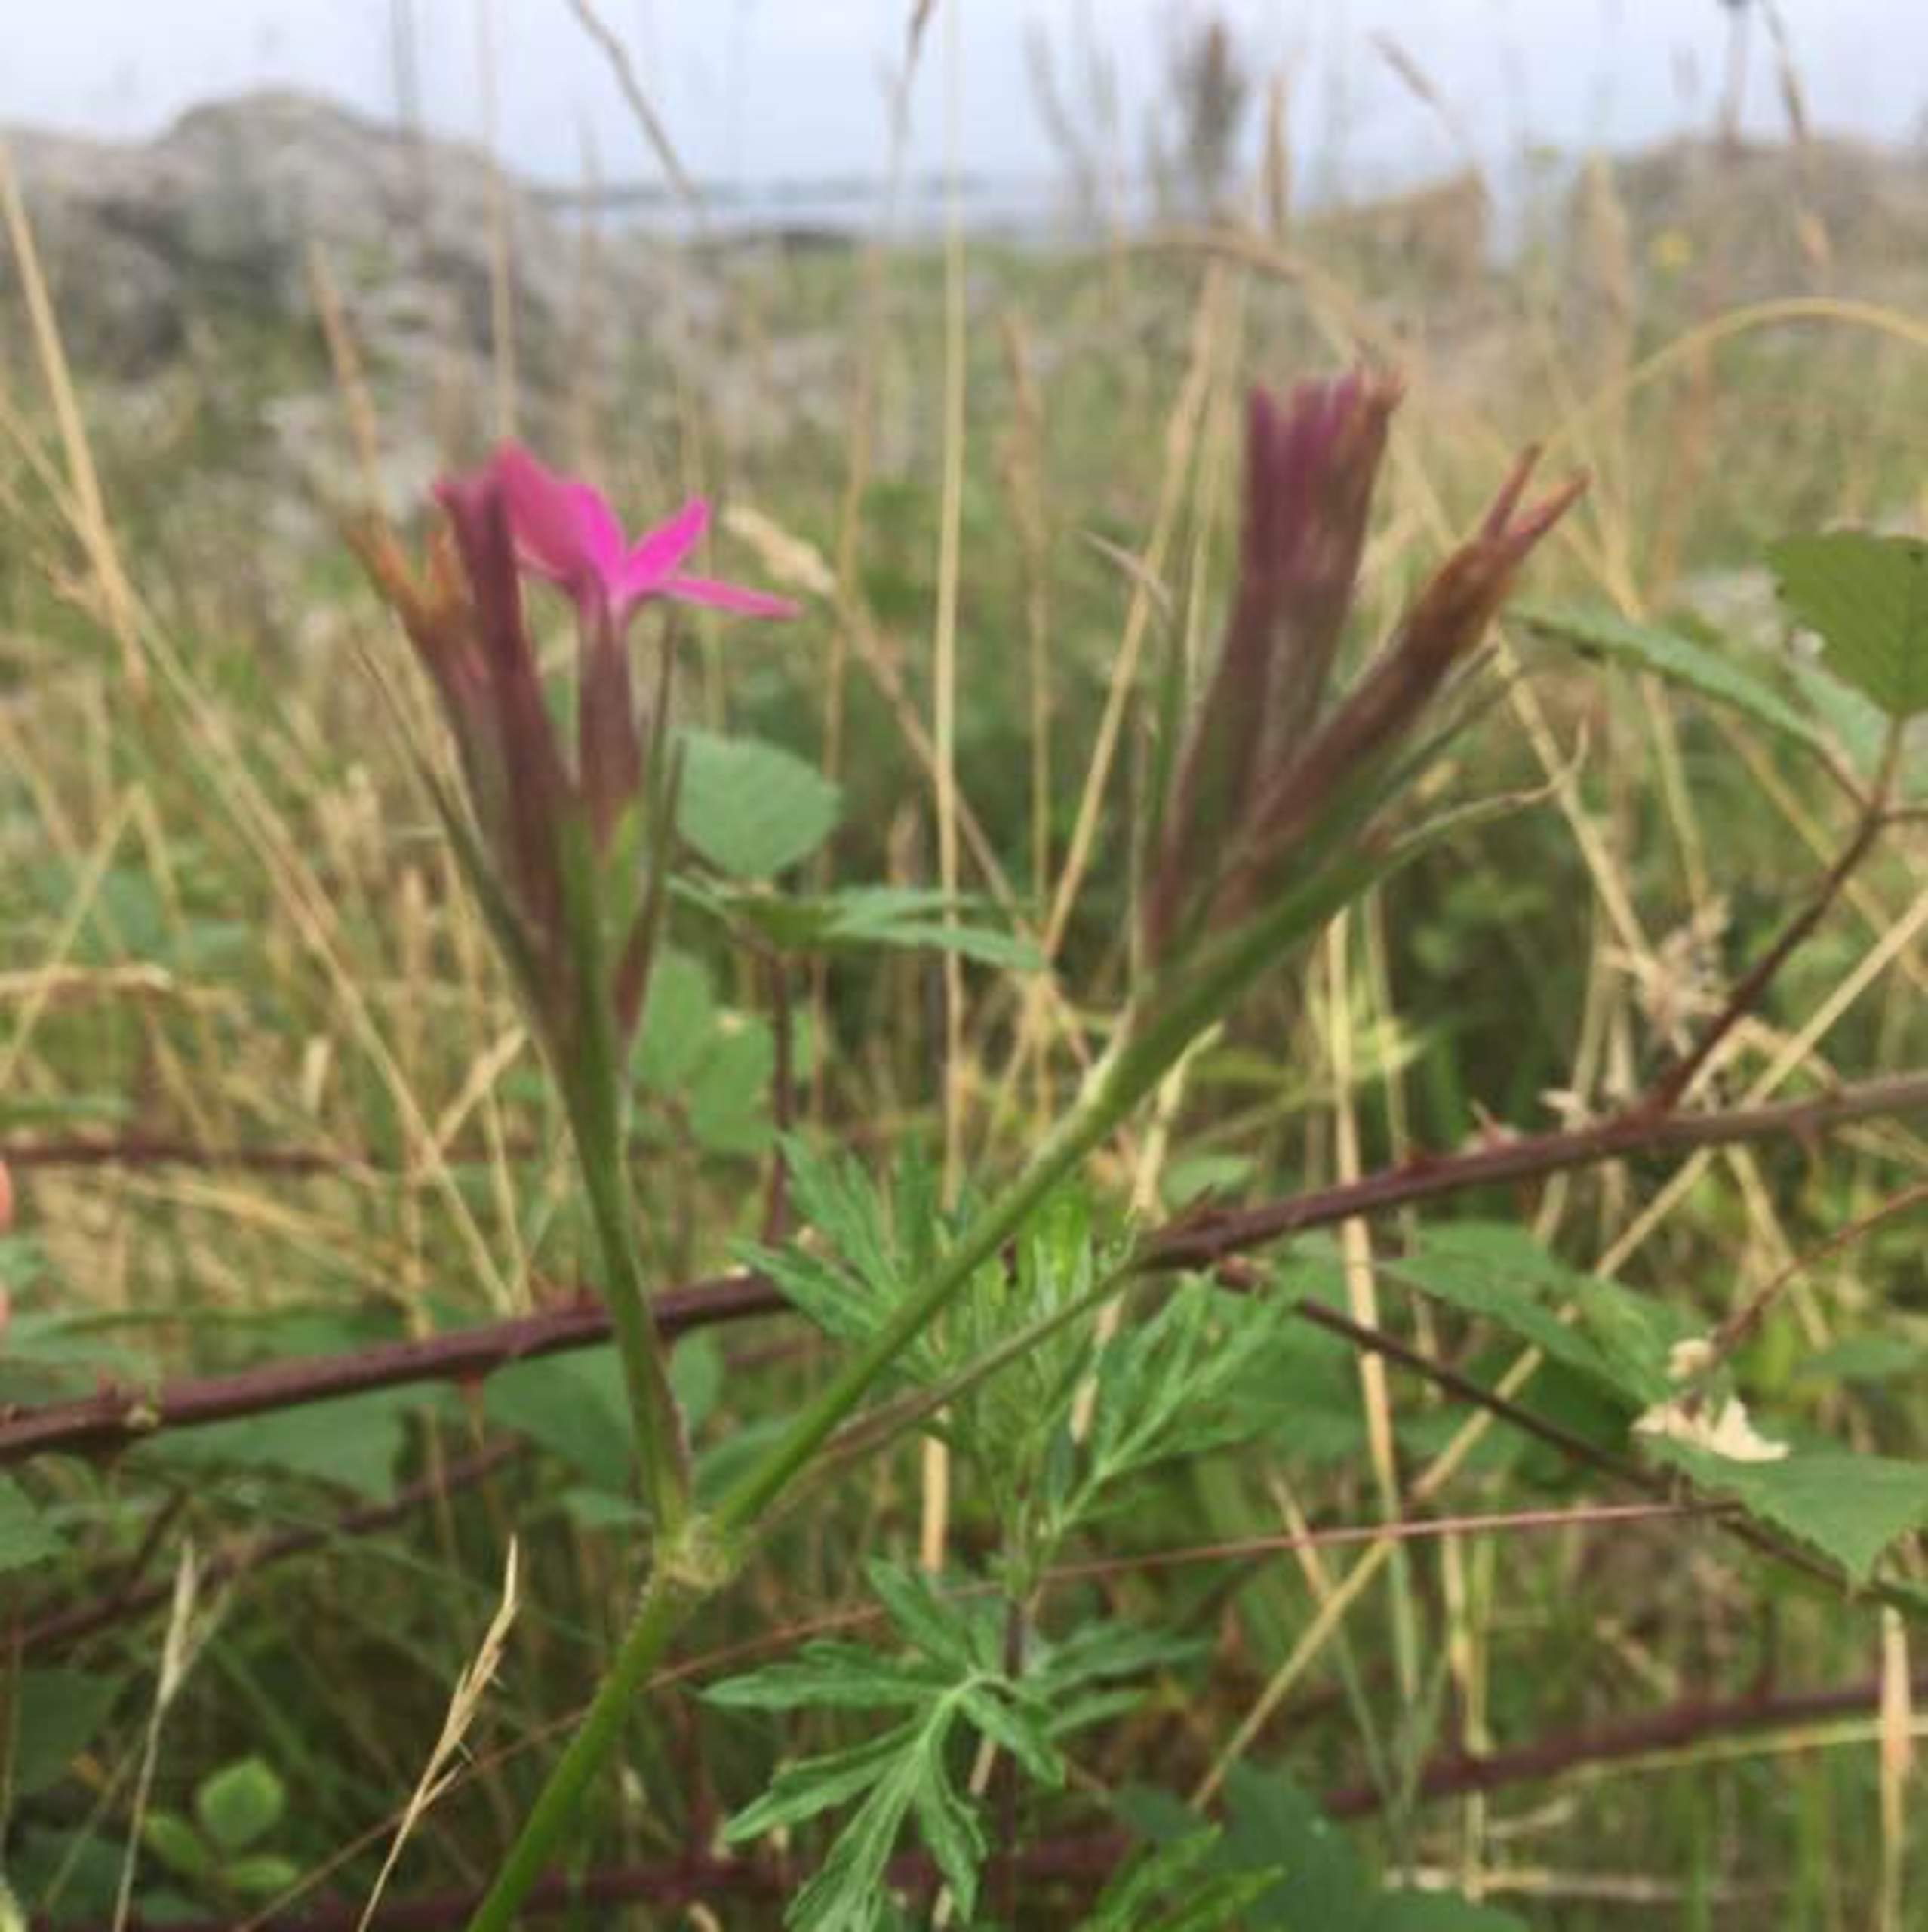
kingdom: Plantae
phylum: Tracheophyta
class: Magnoliopsida
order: Caryophyllales
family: Caryophyllaceae
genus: Dianthus
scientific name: Dianthus armeria
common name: Kost-nellike
